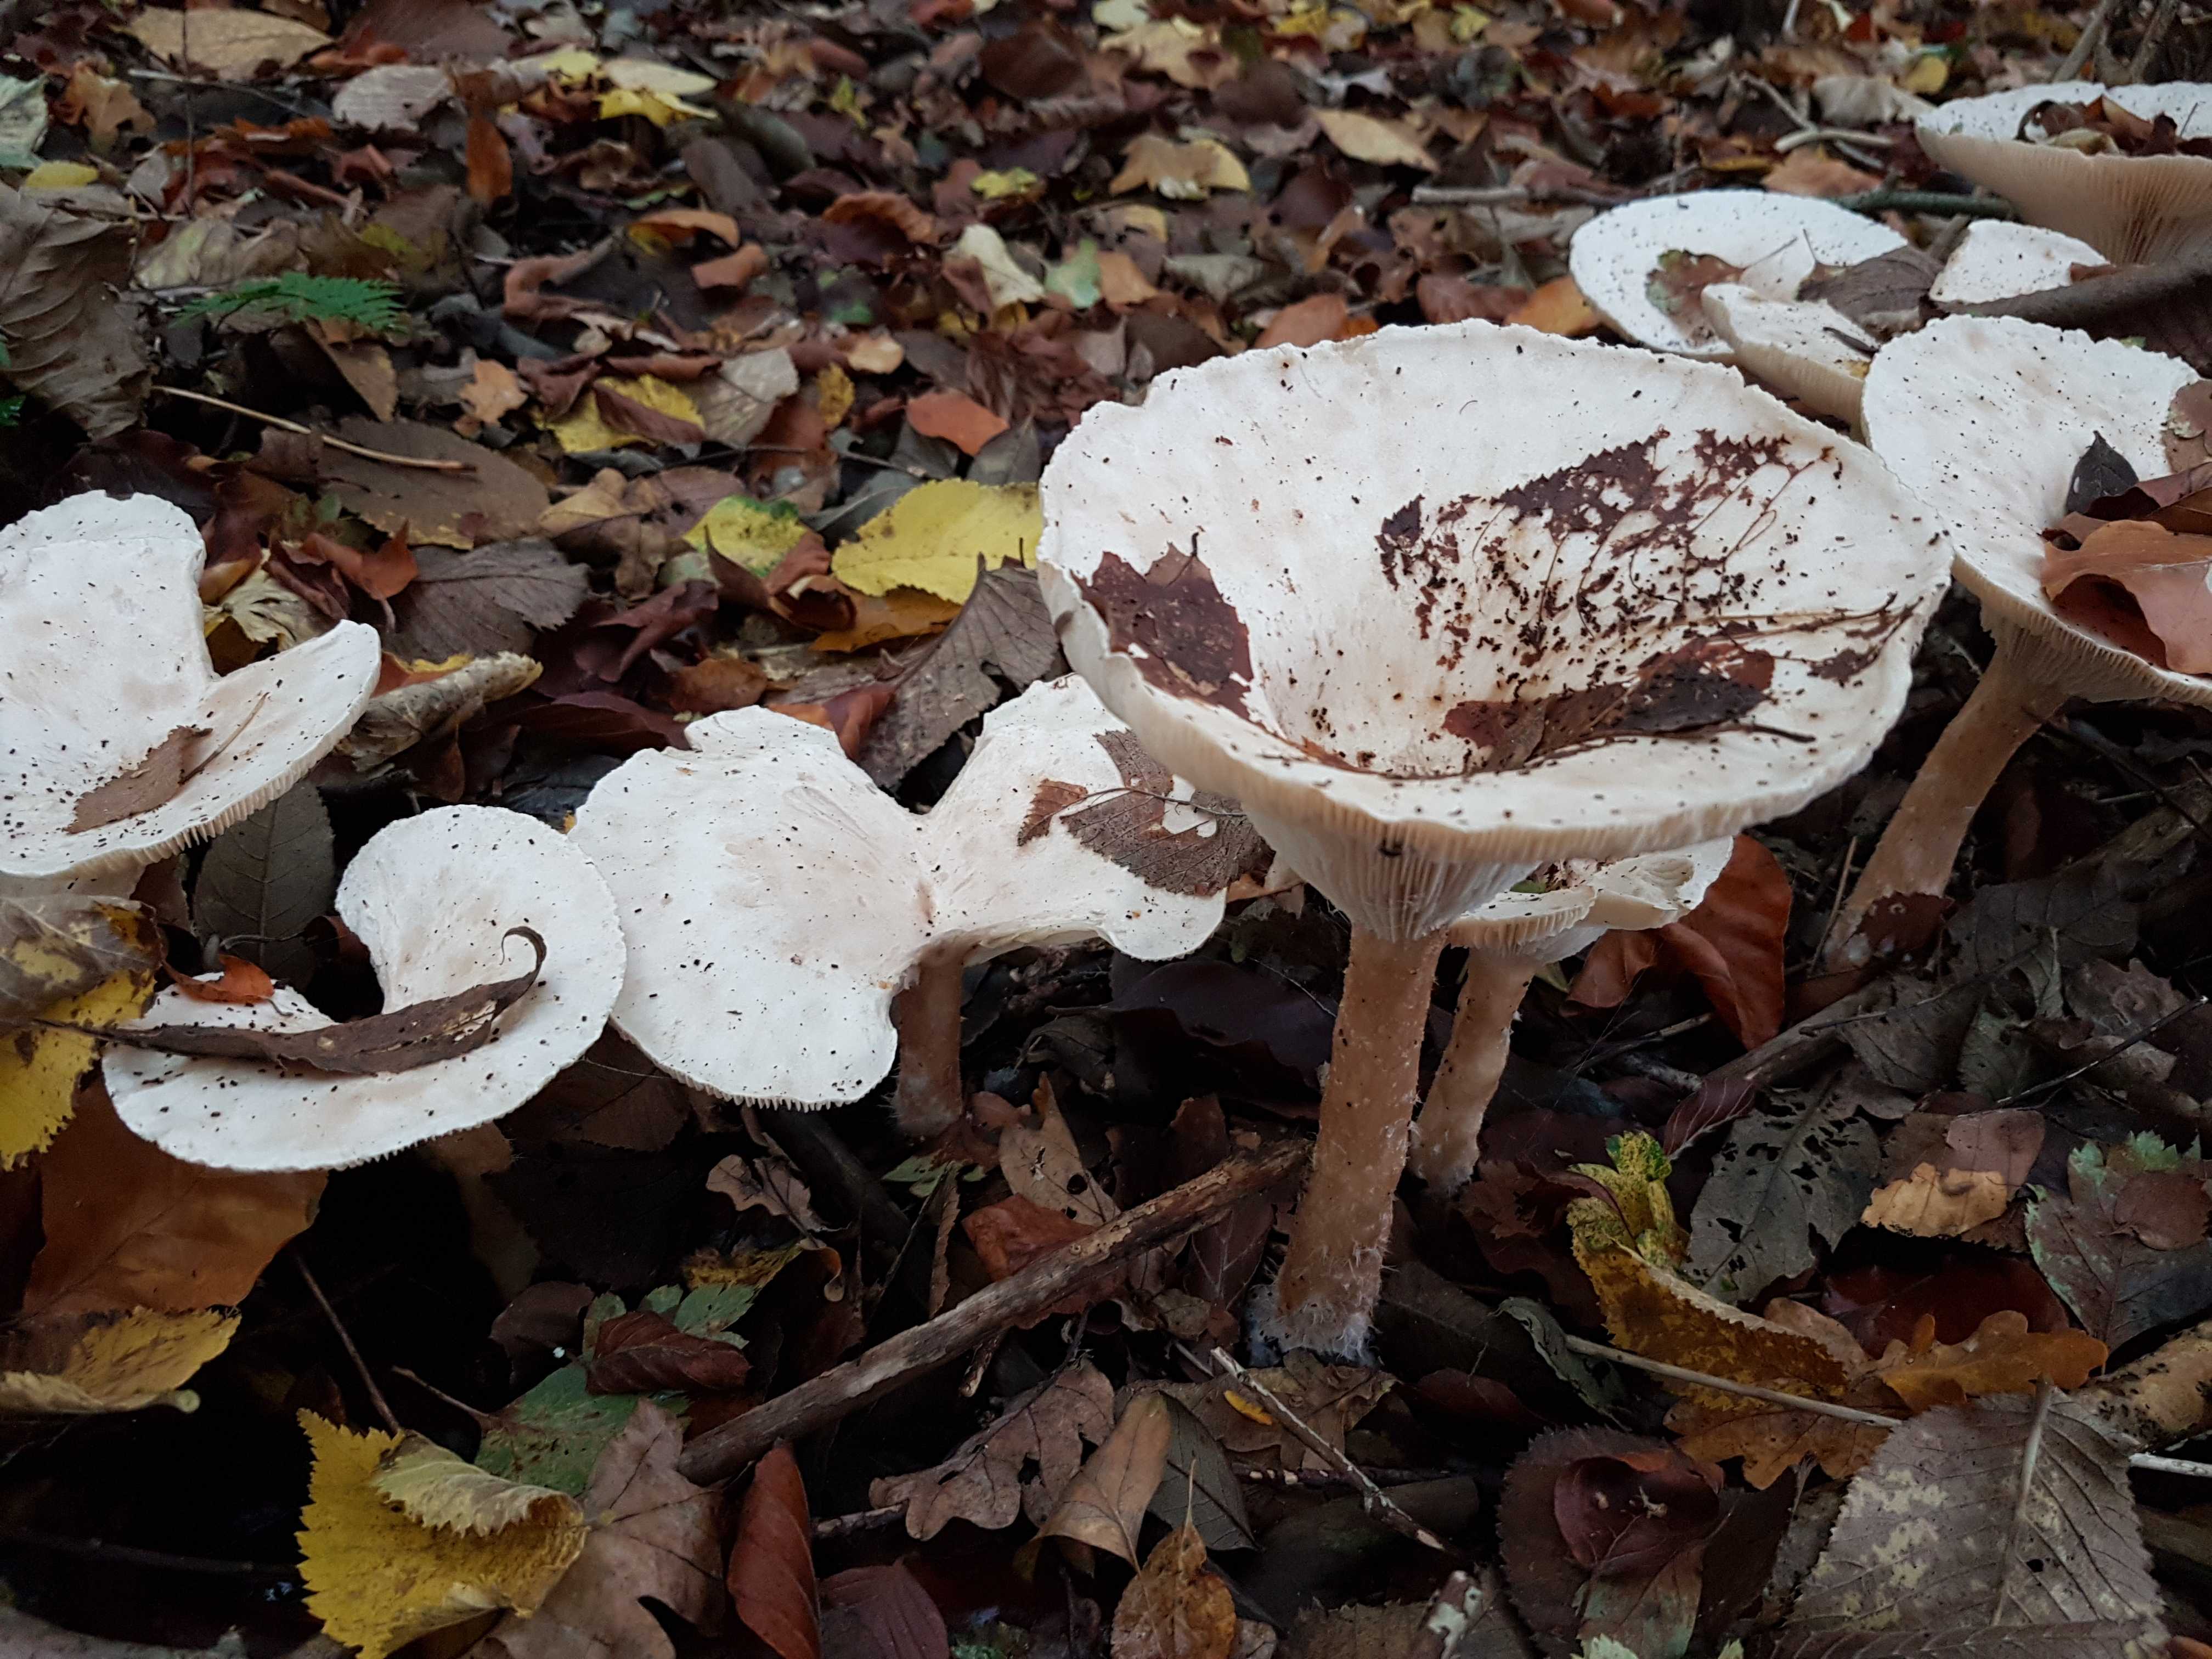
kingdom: Fungi
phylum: Basidiomycota
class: Agaricomycetes
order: Agaricales
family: Tricholomataceae
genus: Infundibulicybe
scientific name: Infundibulicybe geotropa
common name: stor tragthat
